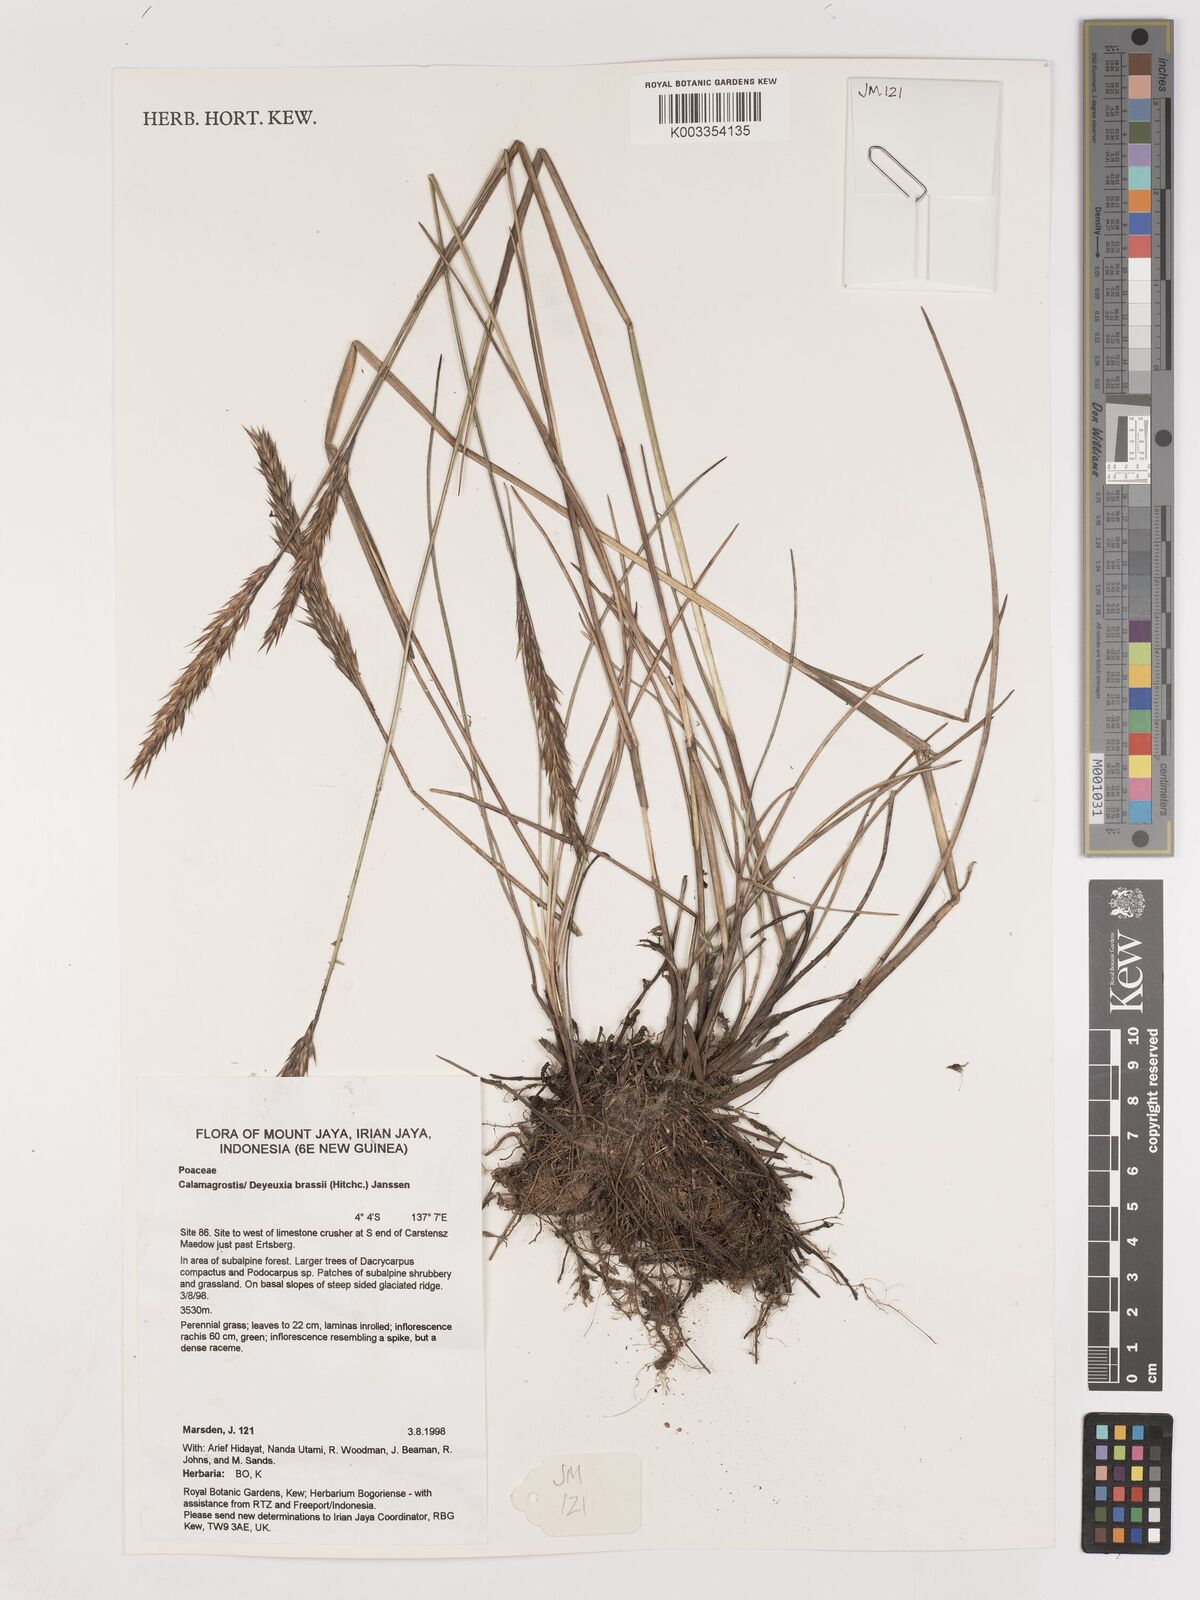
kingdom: Plantae
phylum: Tracheophyta
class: Liliopsida
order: Poales
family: Poaceae
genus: Calamagrostis
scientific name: Calamagrostis brassii
